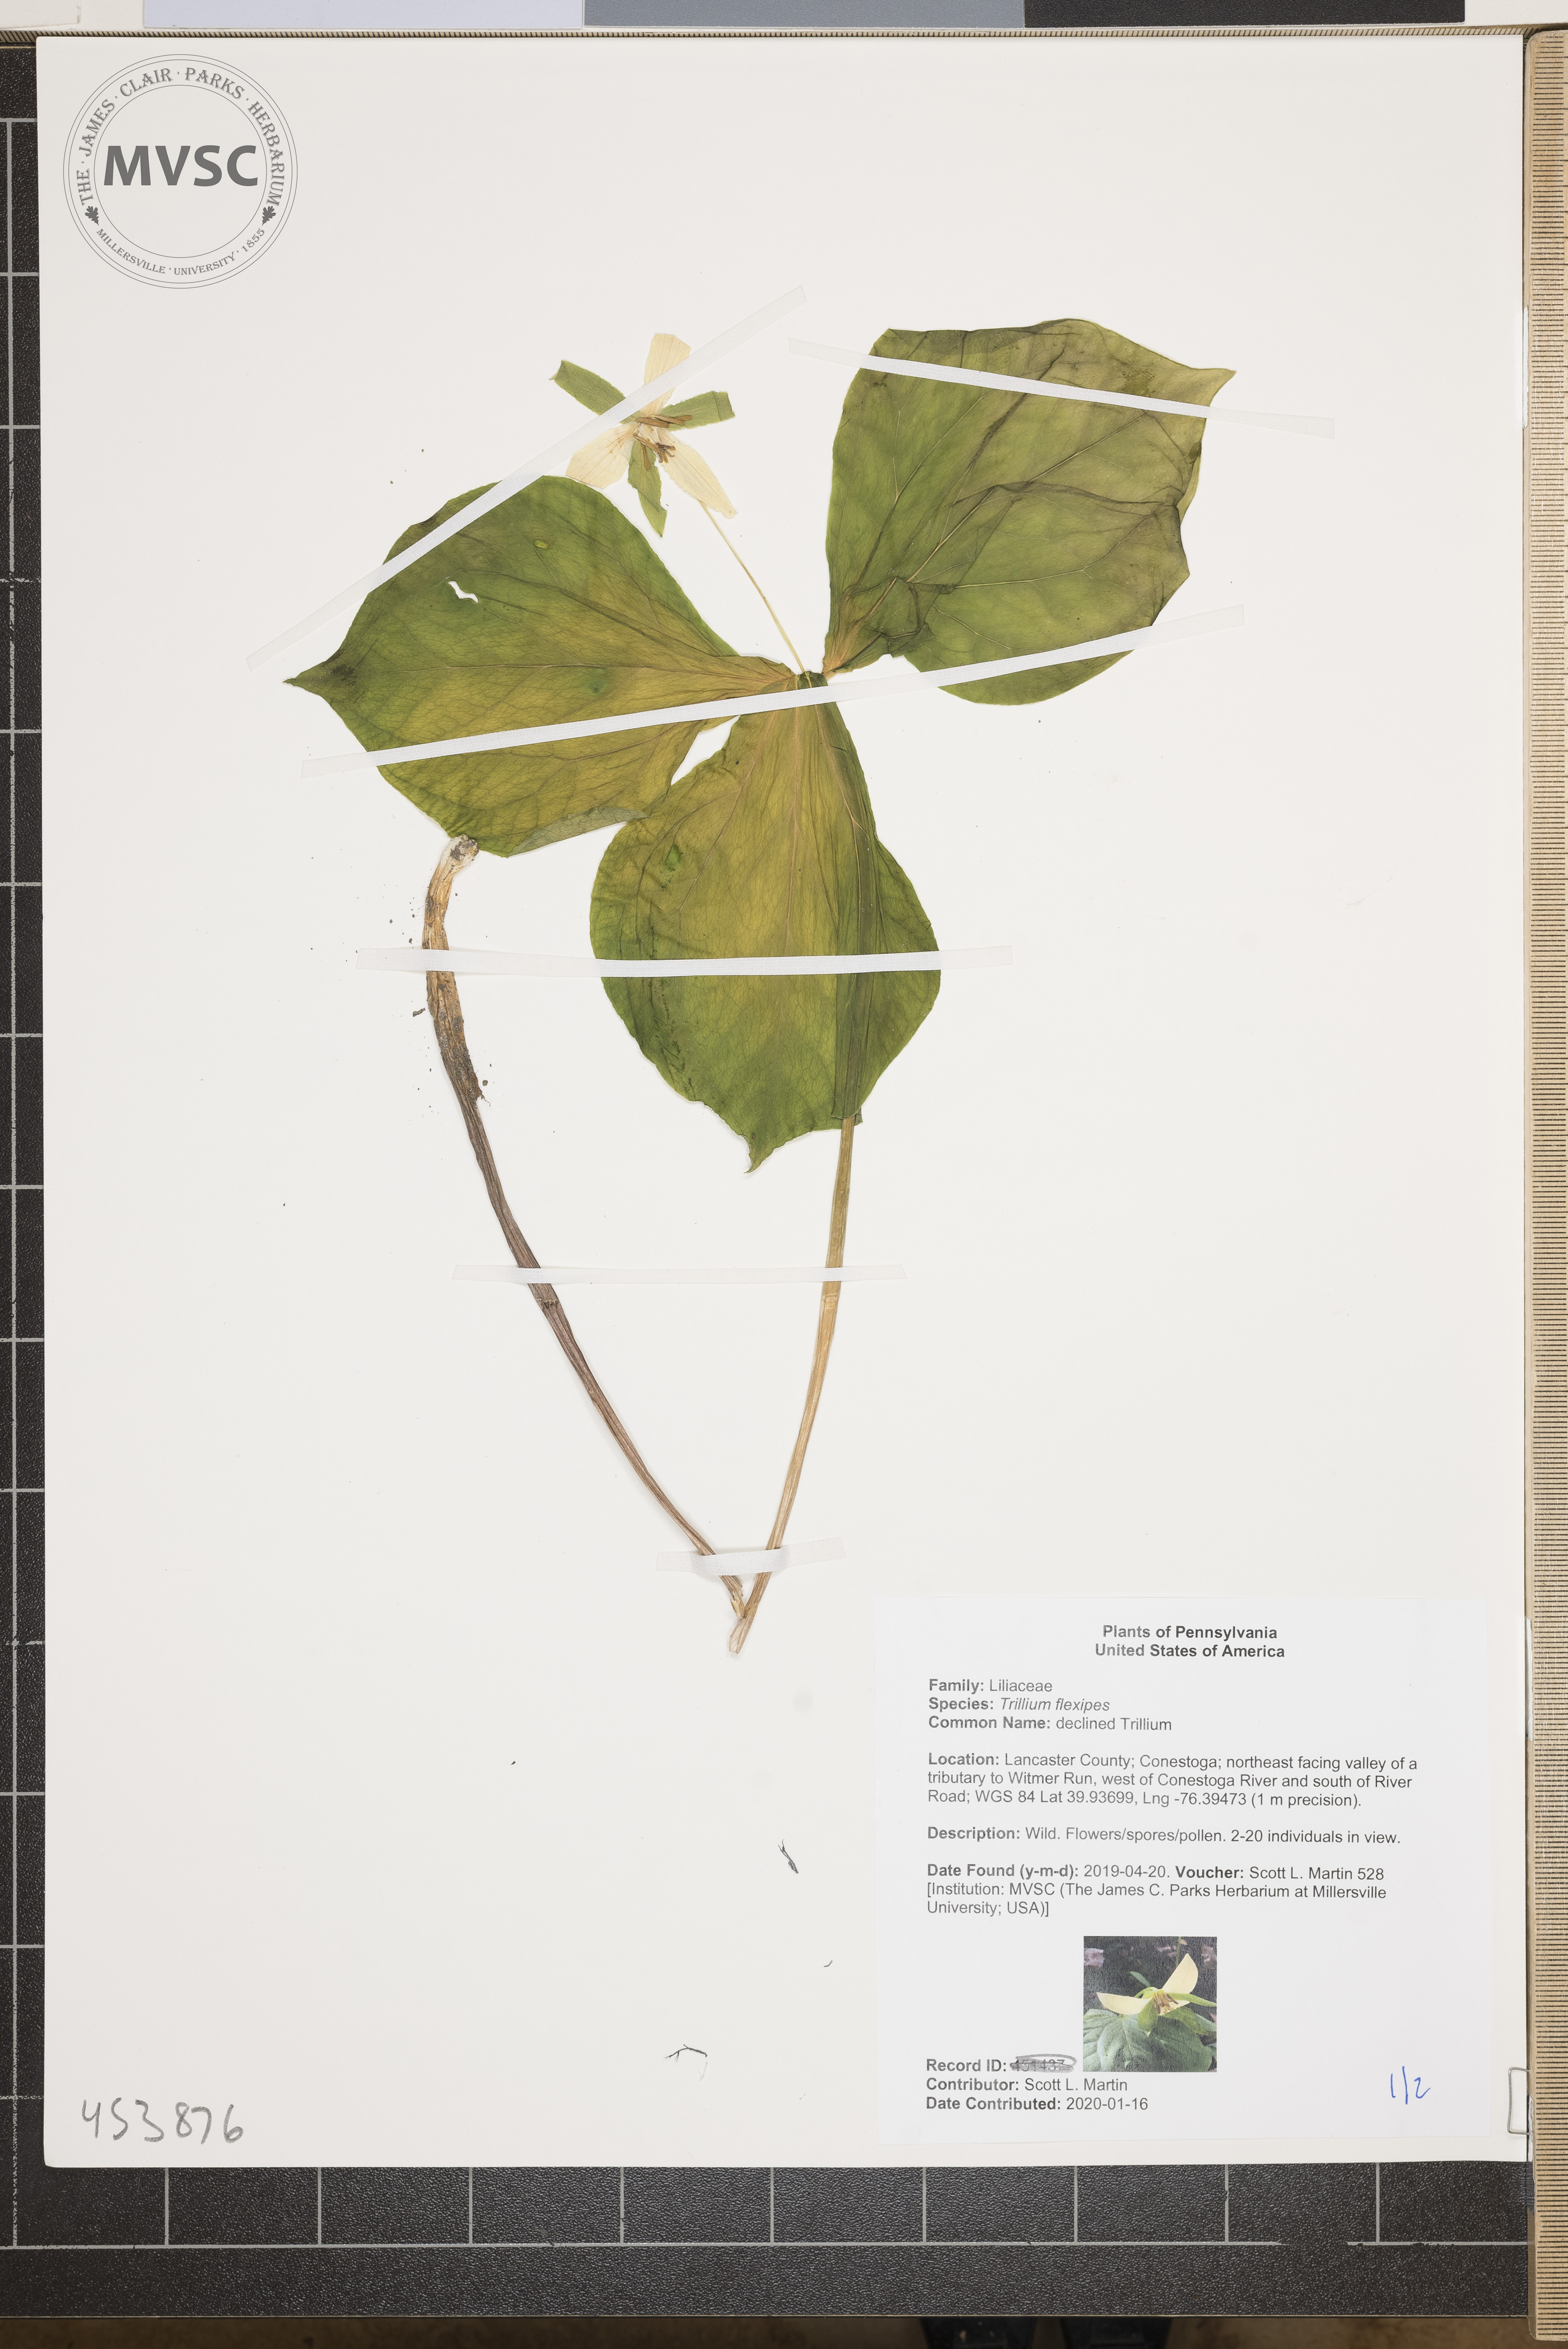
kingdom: Plantae
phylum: Tracheophyta
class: Liliopsida
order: Liliales
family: Melanthiaceae
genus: Trillium
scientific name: Trillium flexipes
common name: declined Trillium
